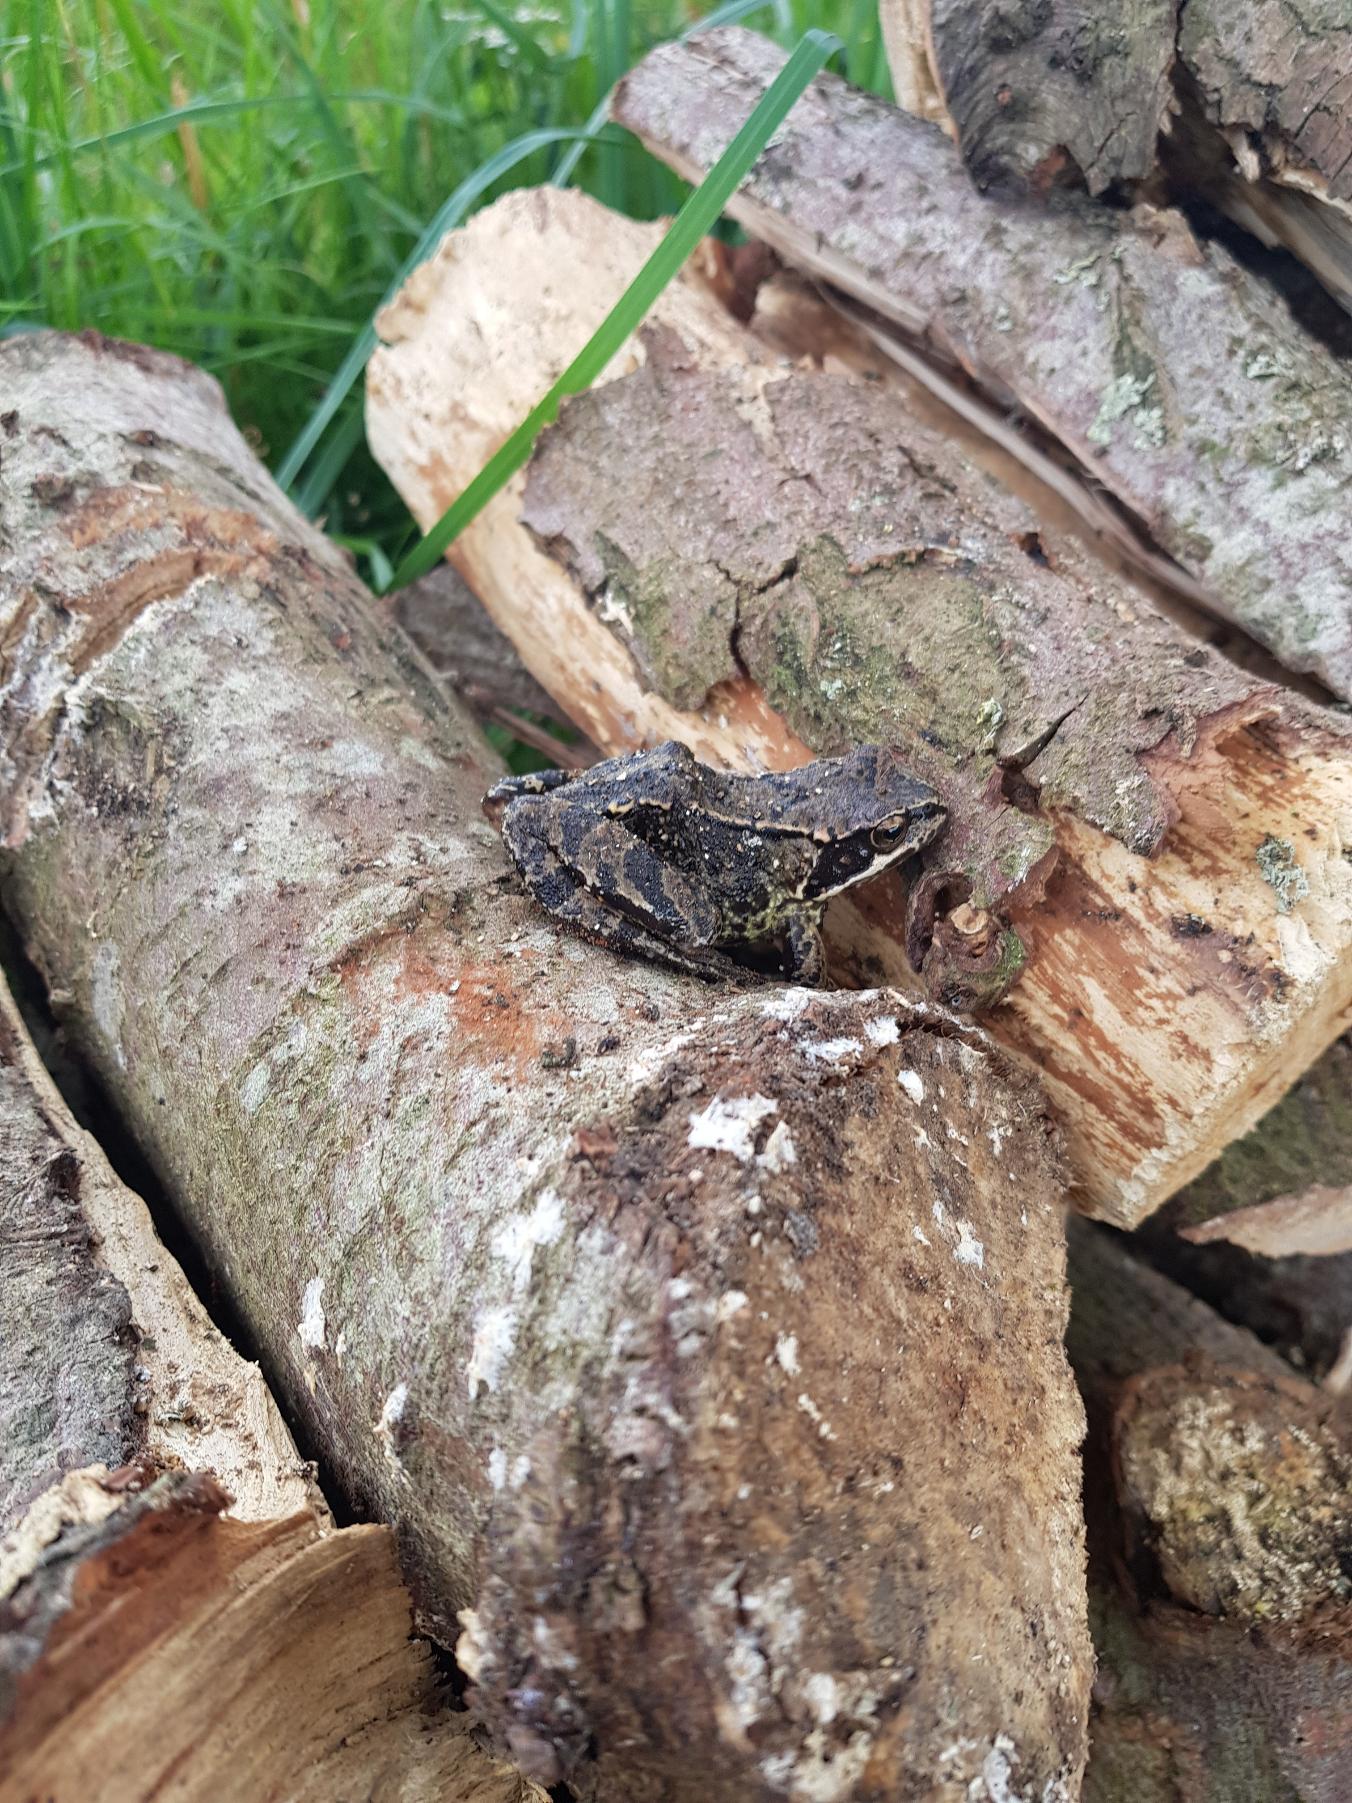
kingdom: Animalia
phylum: Chordata
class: Amphibia
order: Anura
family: Ranidae
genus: Rana
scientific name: Rana temporaria
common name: Butsnudet frø
